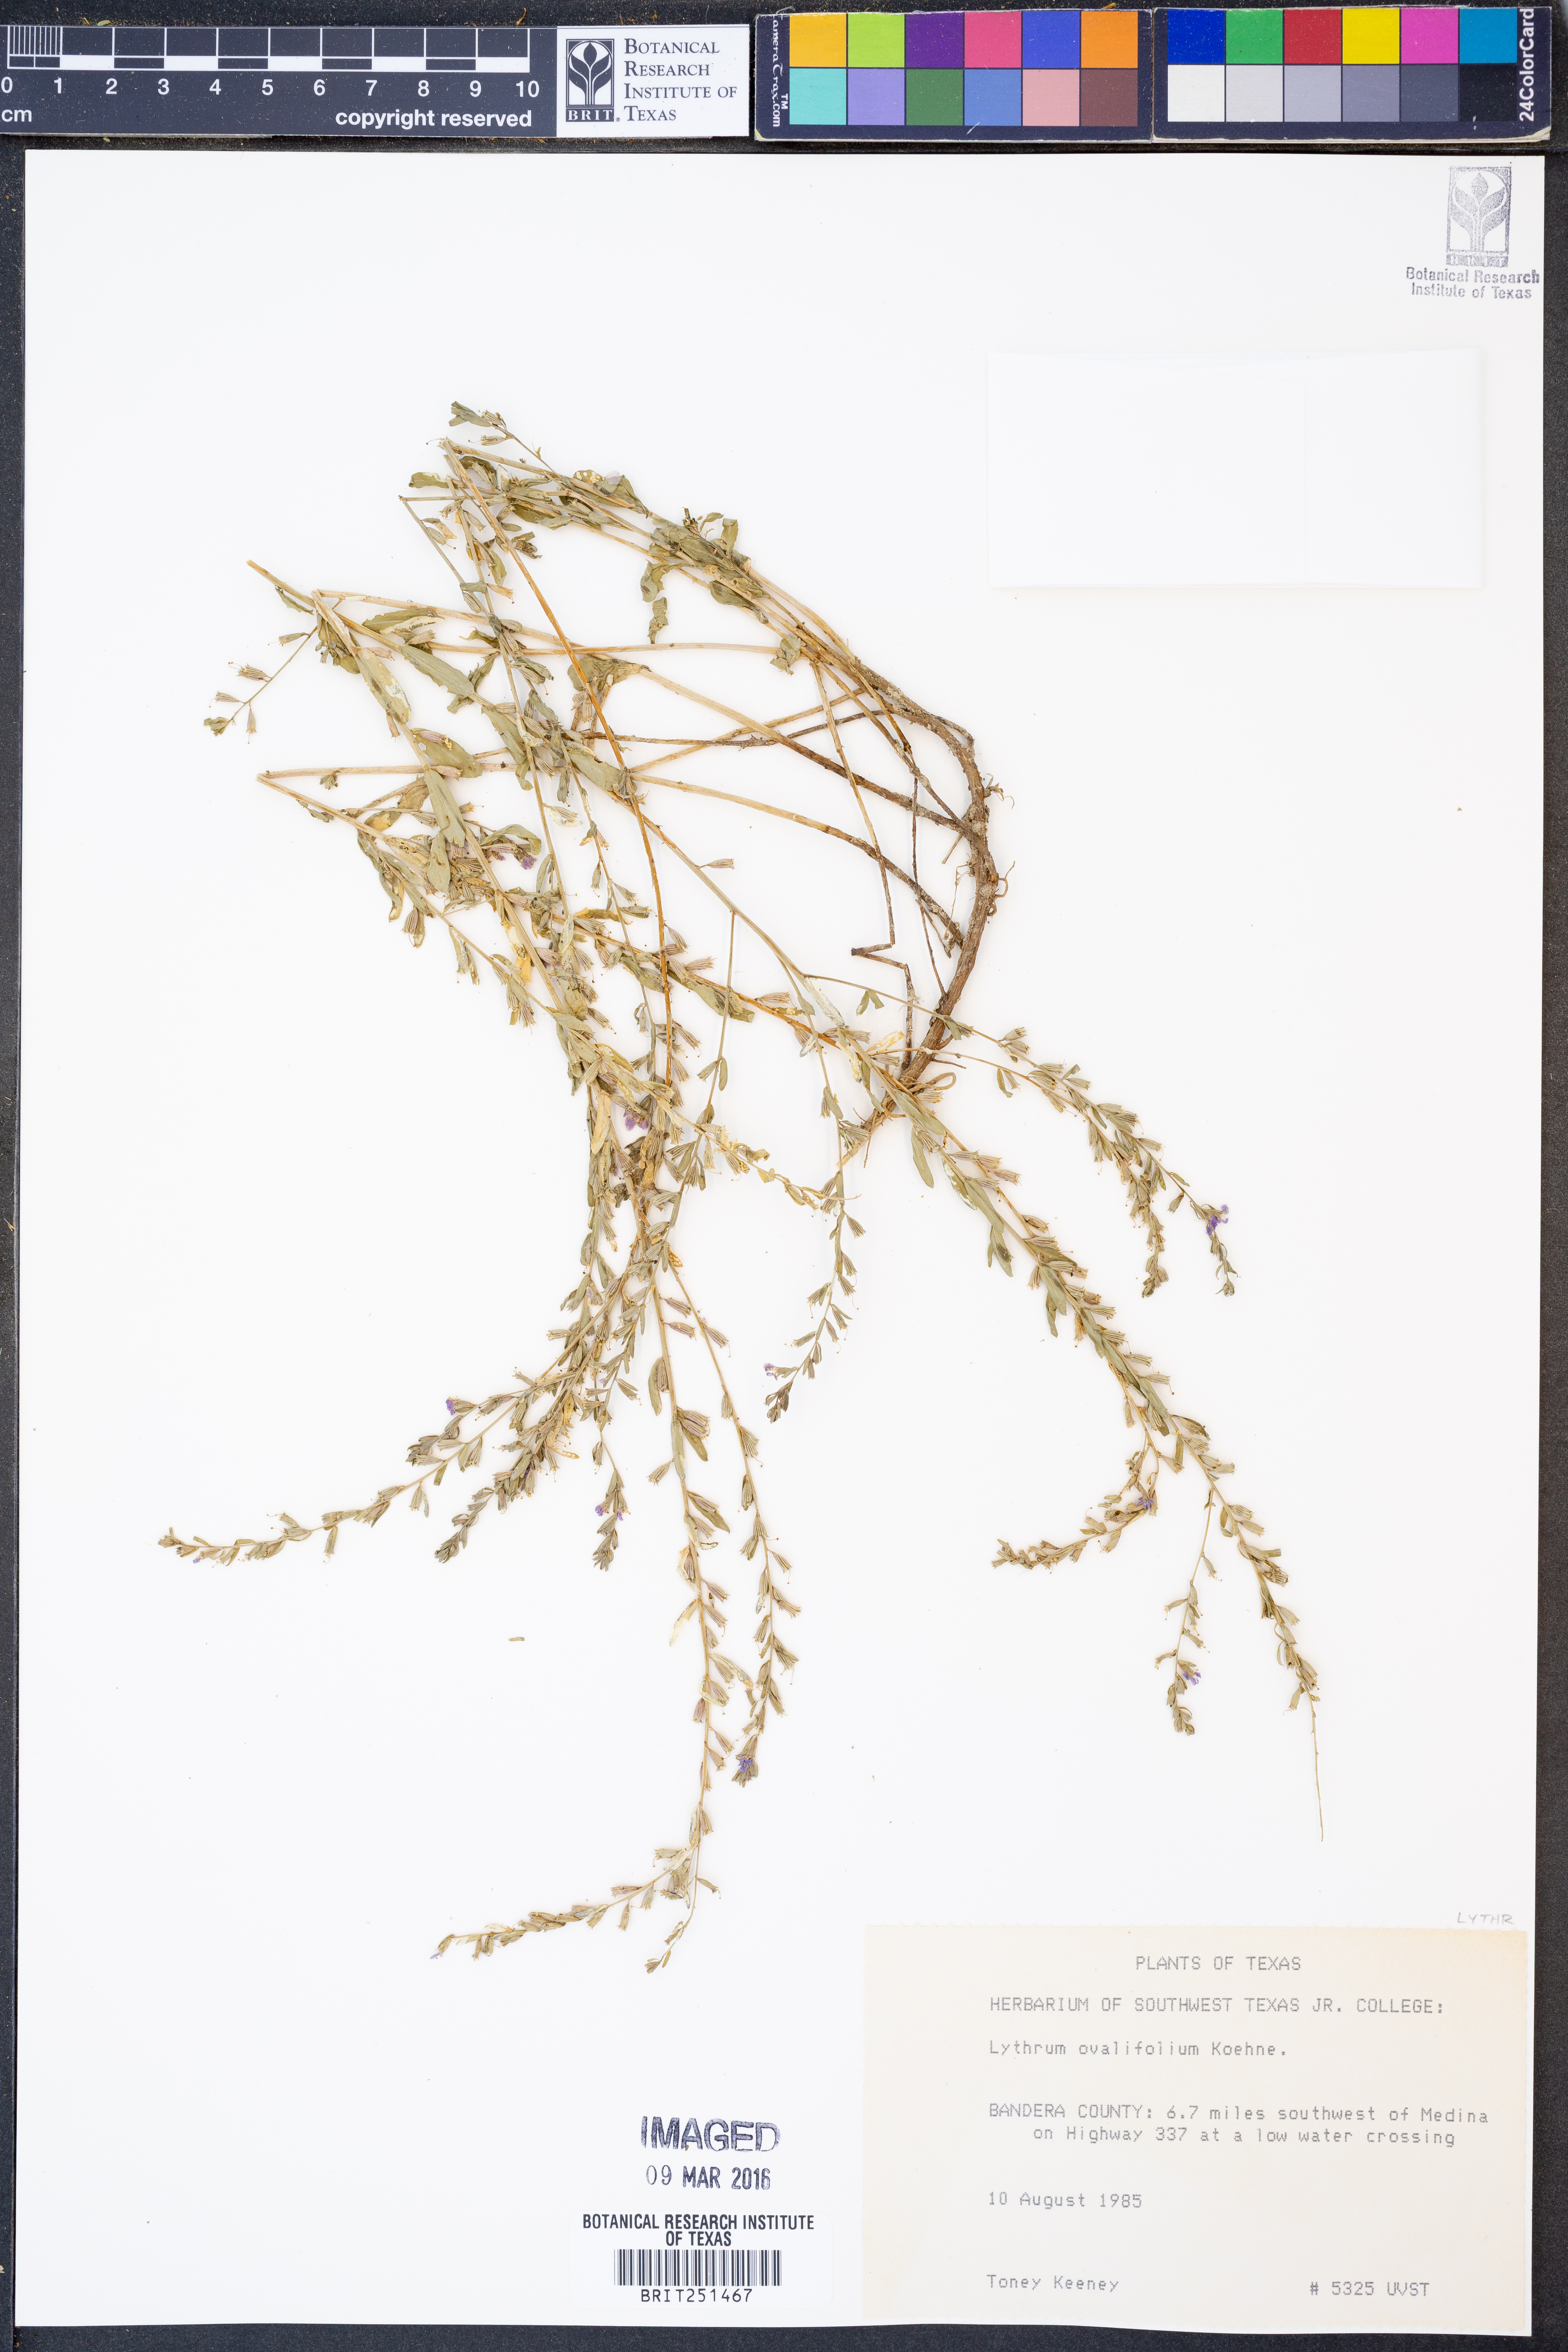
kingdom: Plantae
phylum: Tracheophyta
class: Magnoliopsida
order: Myrtales
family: Lythraceae
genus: Lythrum
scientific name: Lythrum ovalifolium
